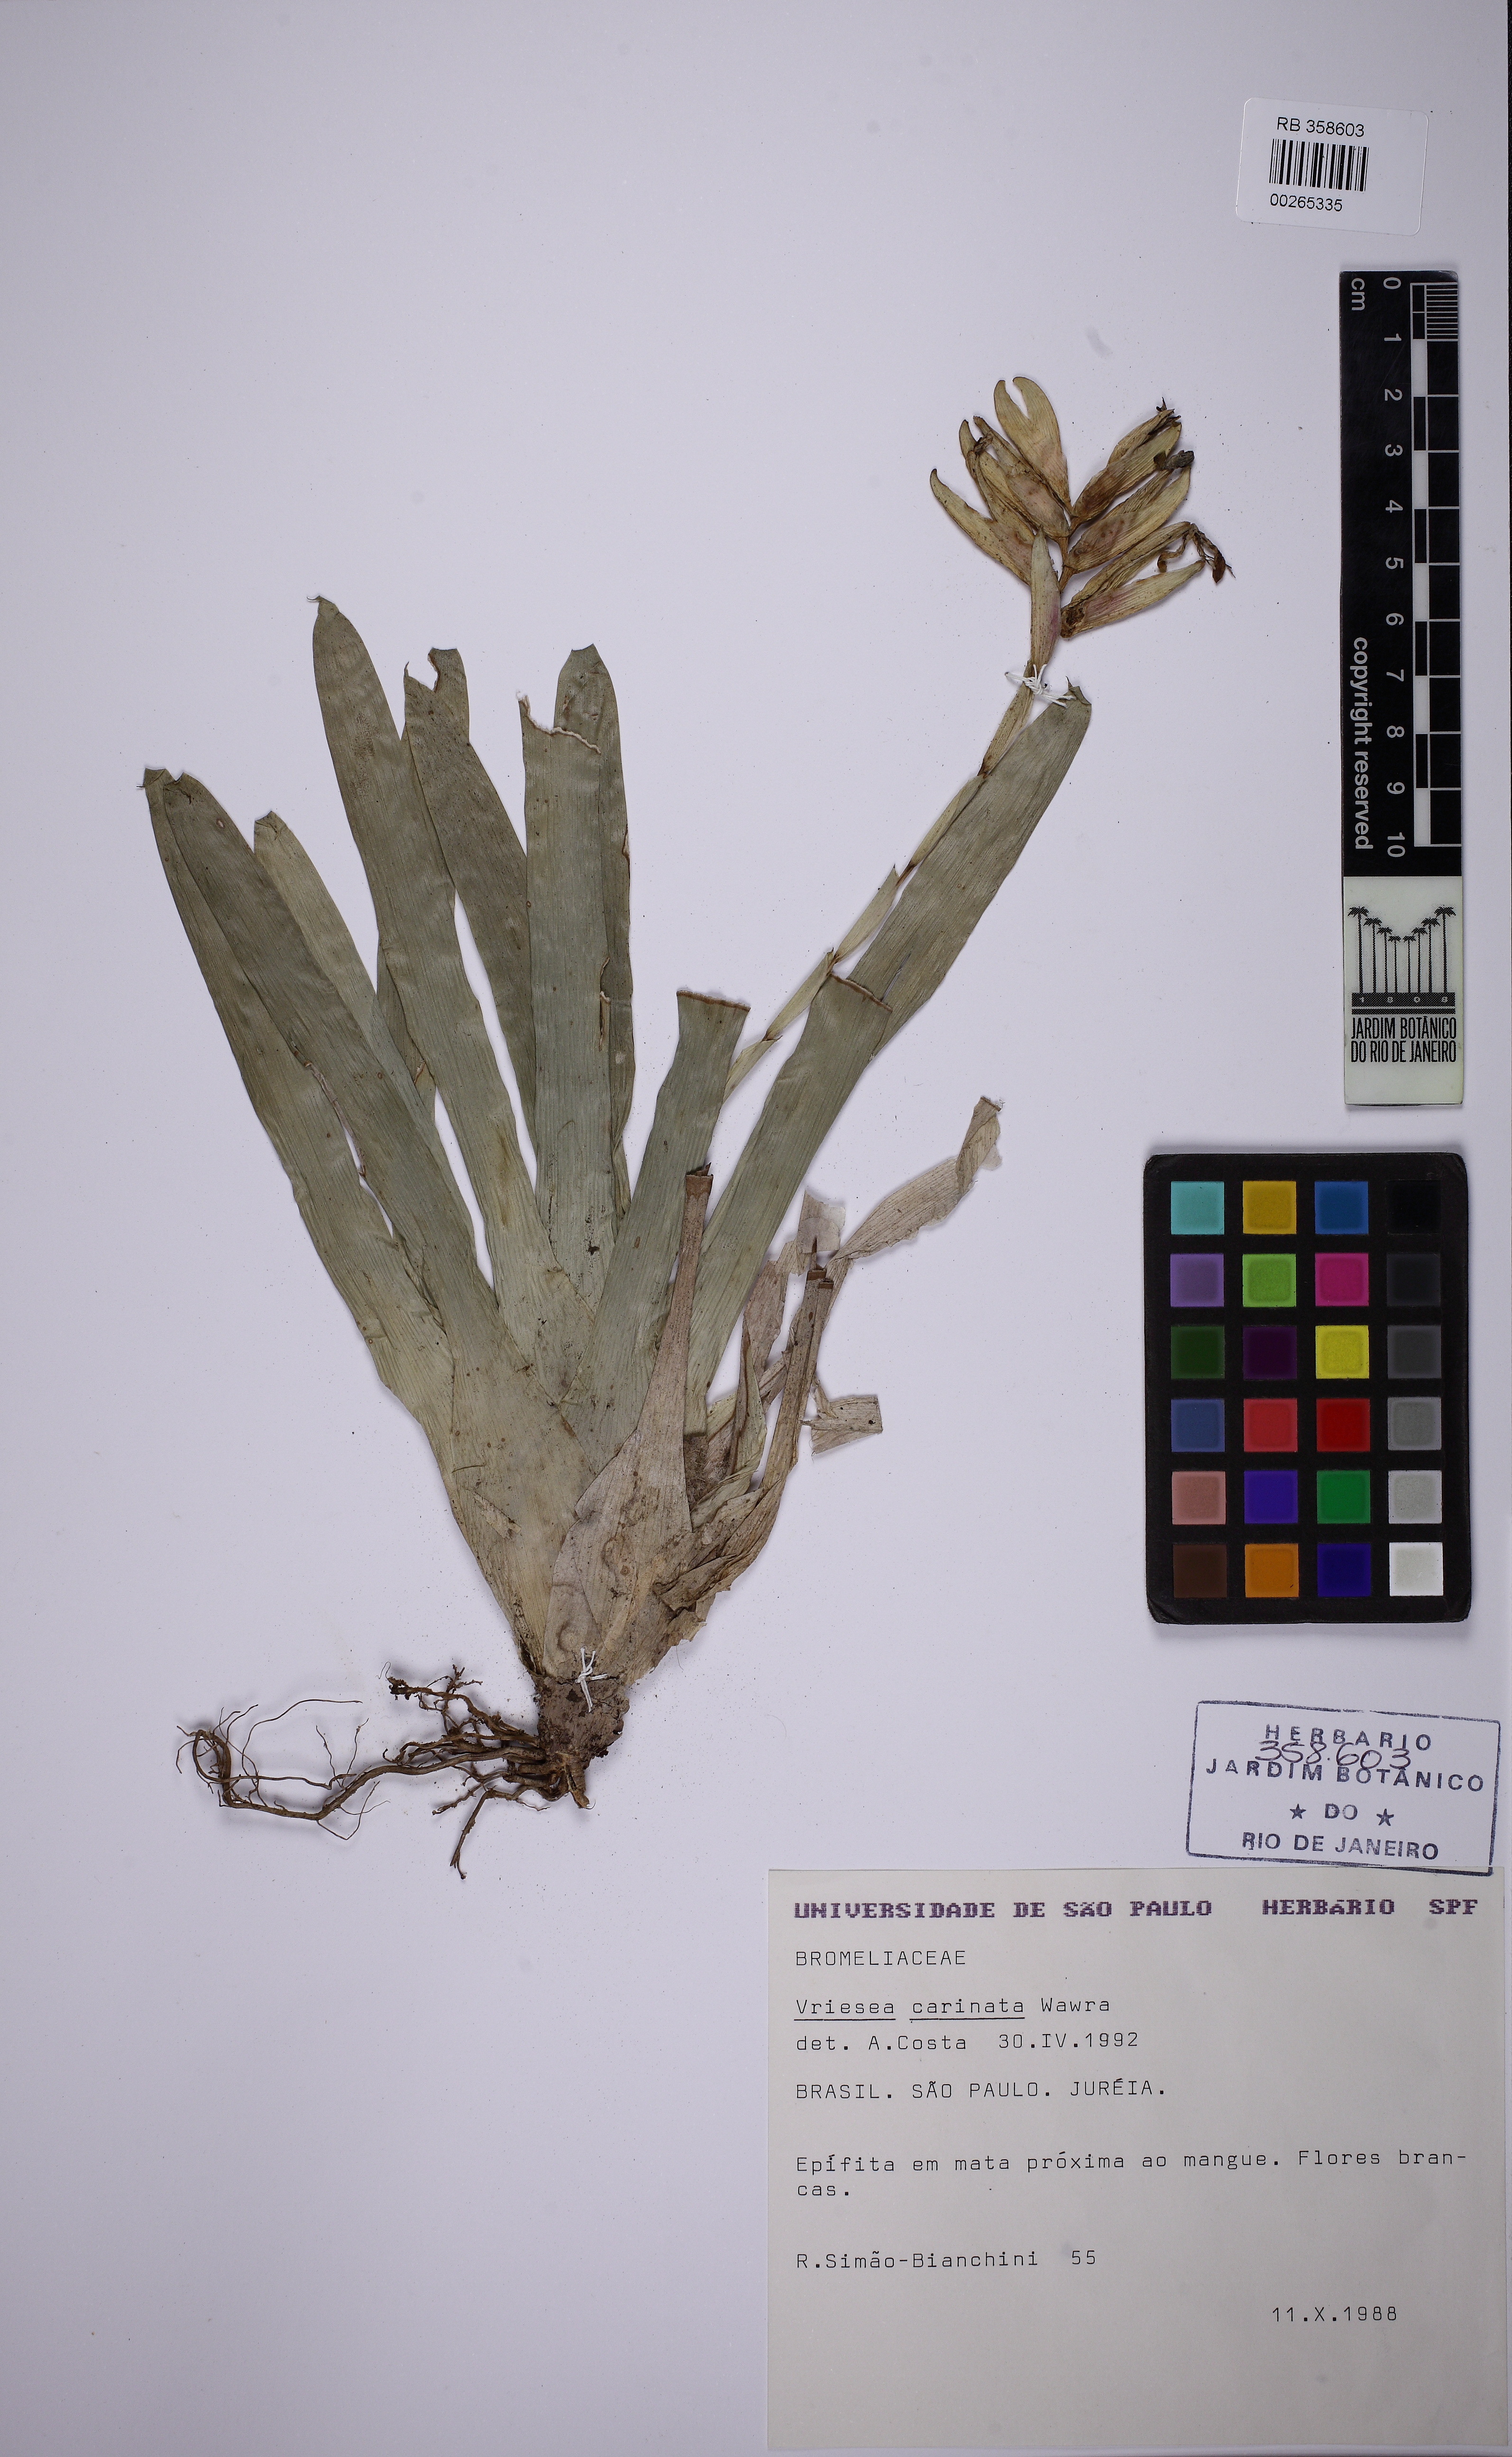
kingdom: Plantae
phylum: Tracheophyta
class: Liliopsida
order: Poales
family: Bromeliaceae
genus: Vriesea
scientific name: Vriesea carinata
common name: Lobster-claws
